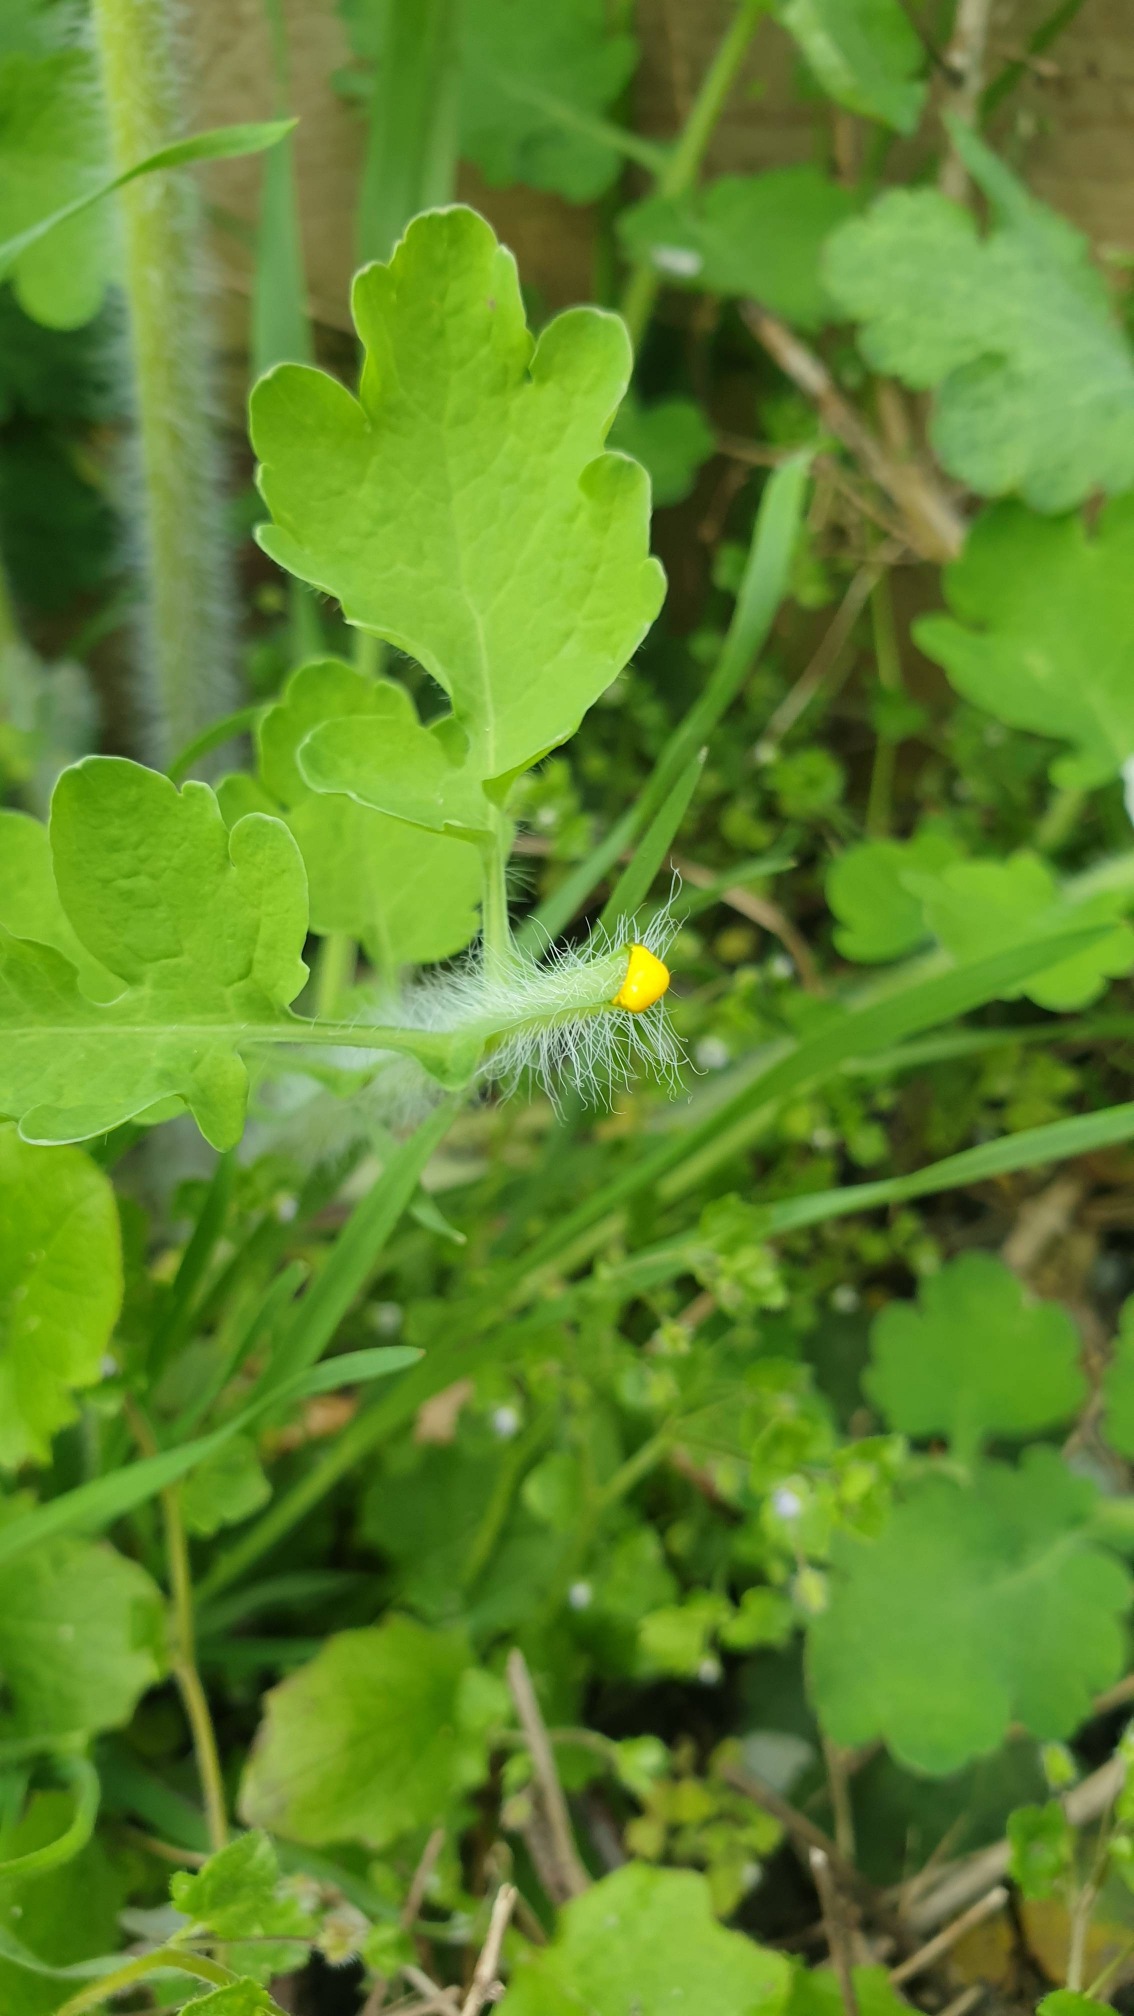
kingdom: Plantae
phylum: Tracheophyta
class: Magnoliopsida
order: Ranunculales
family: Papaveraceae
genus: Chelidonium
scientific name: Chelidonium majus
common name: Svaleurt
